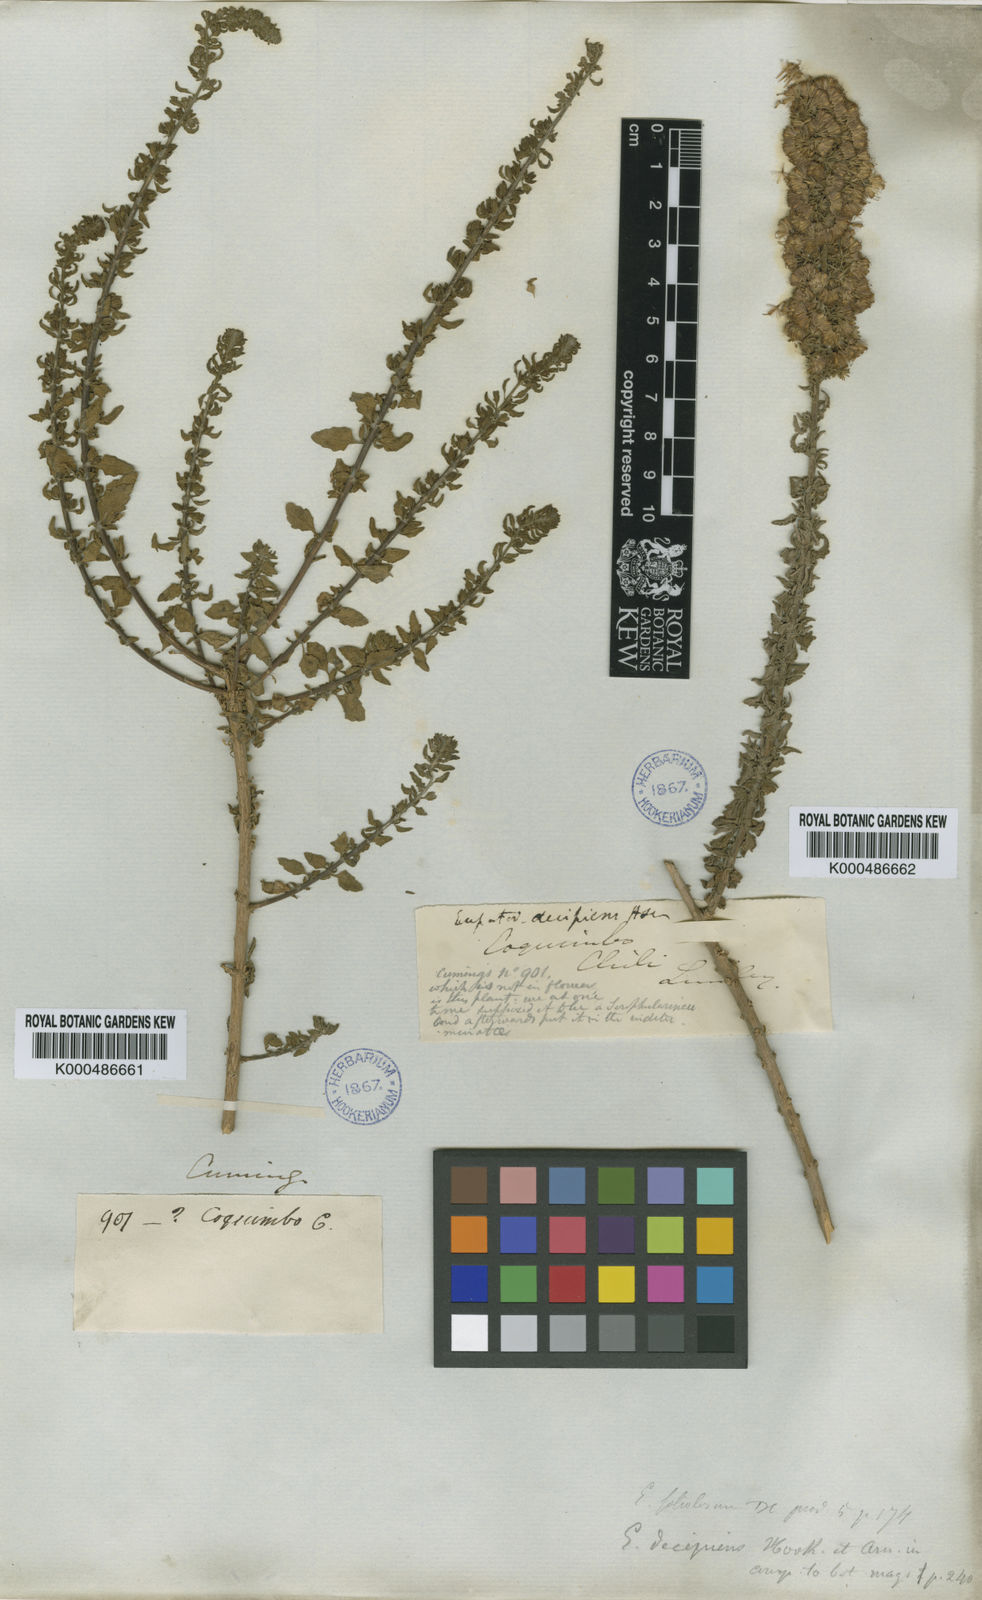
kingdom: Plantae
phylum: Tracheophyta
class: Magnoliopsida
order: Asterales
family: Asteraceae
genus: Ophryosporus
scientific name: Ophryosporus triangularis
